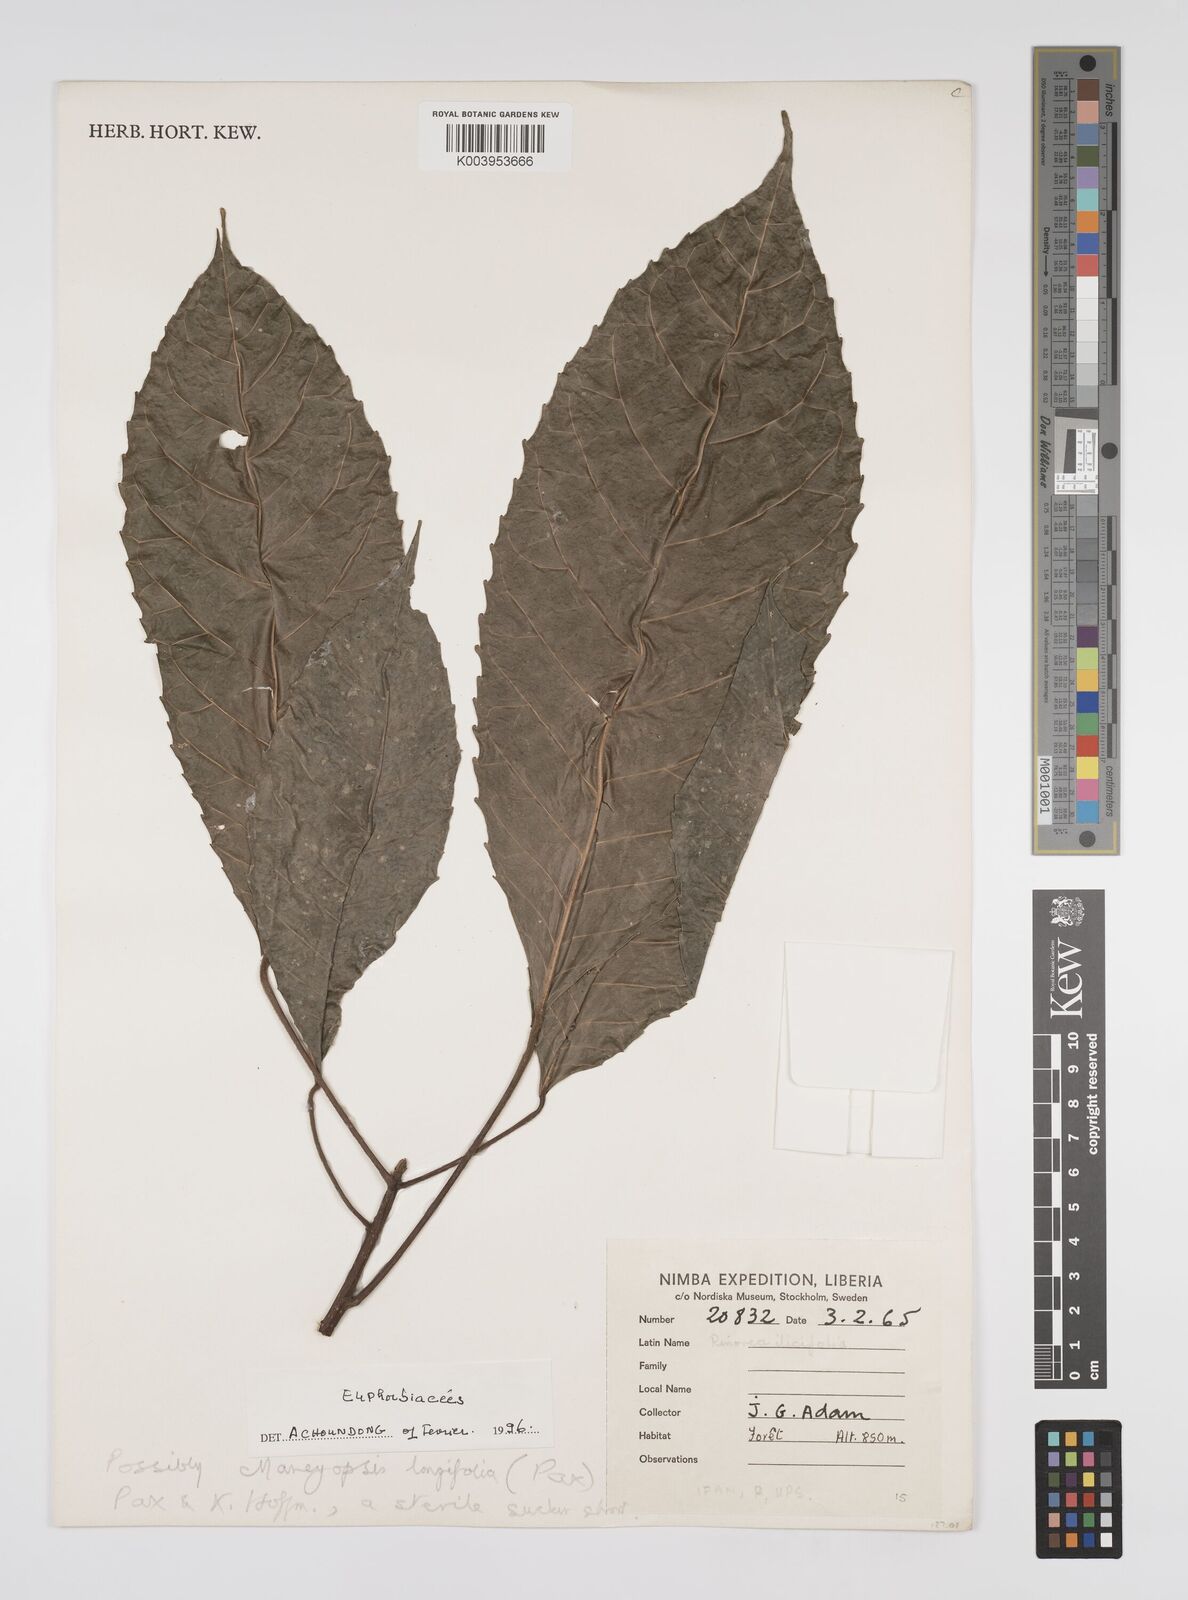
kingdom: Plantae
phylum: Tracheophyta
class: Magnoliopsida
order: Malpighiales
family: Euphorbiaceae
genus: Mareyopsis
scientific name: Mareyopsis longifolia
